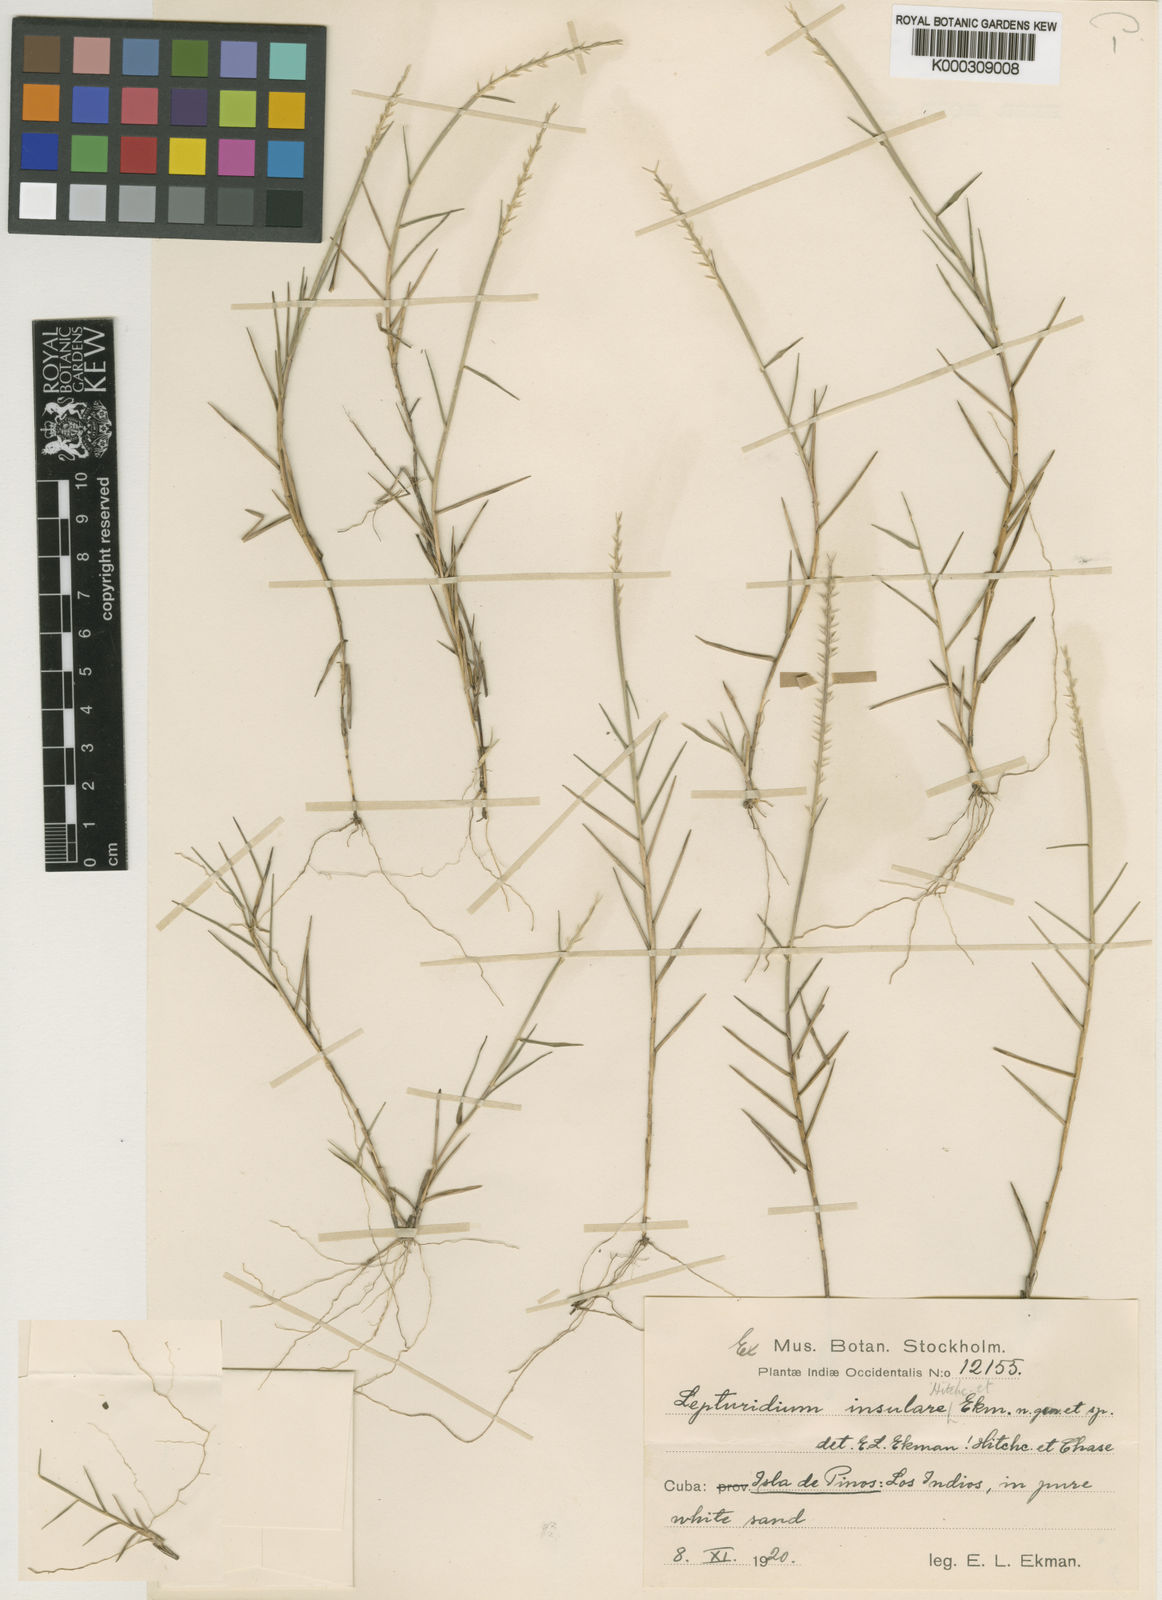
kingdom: Plantae
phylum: Tracheophyta
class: Liliopsida
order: Poales
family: Poaceae
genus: Lepturidium
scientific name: Lepturidium insulare
